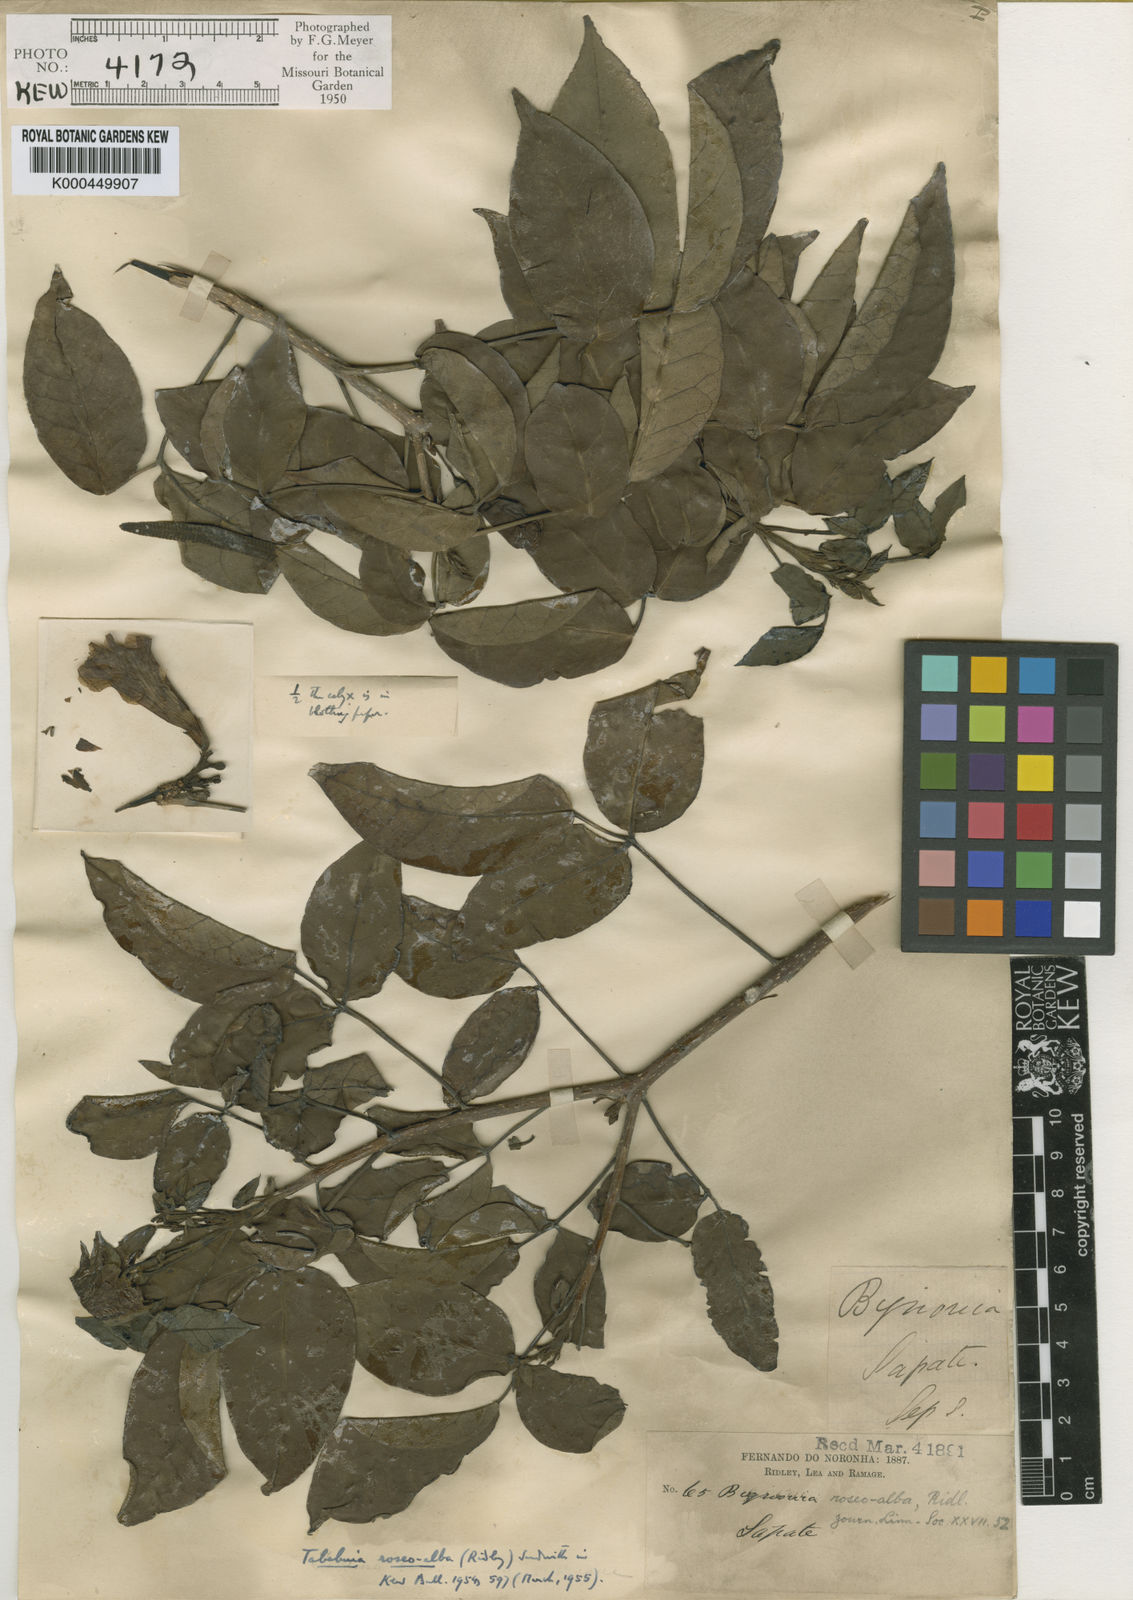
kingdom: Plantae
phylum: Tracheophyta
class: Magnoliopsida
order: Lamiales
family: Bignoniaceae
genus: Tabebuia
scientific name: Tabebuia roseoalba
